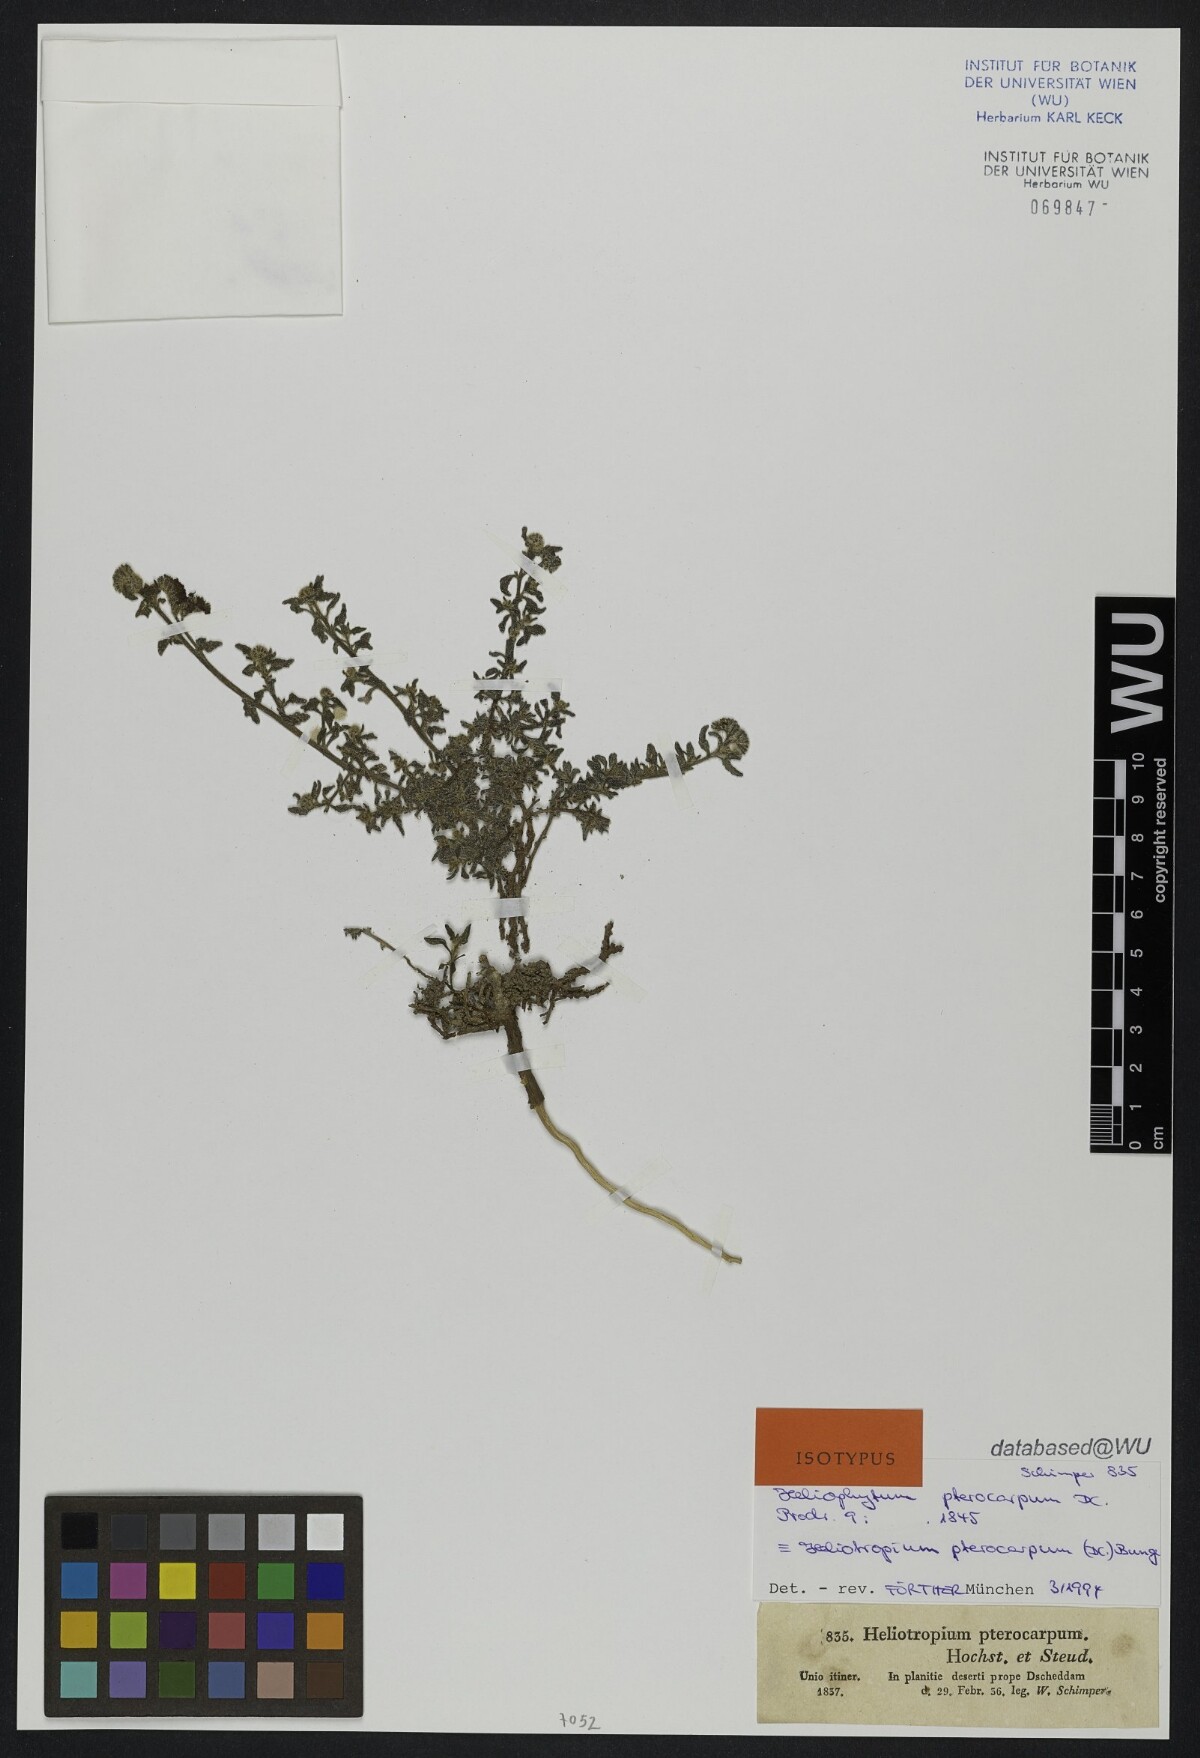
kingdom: Plantae
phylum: Tracheophyta
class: Magnoliopsida
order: Boraginales
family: Heliotropiaceae
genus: Heliotropium
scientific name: Heliotropium pterocarpum
